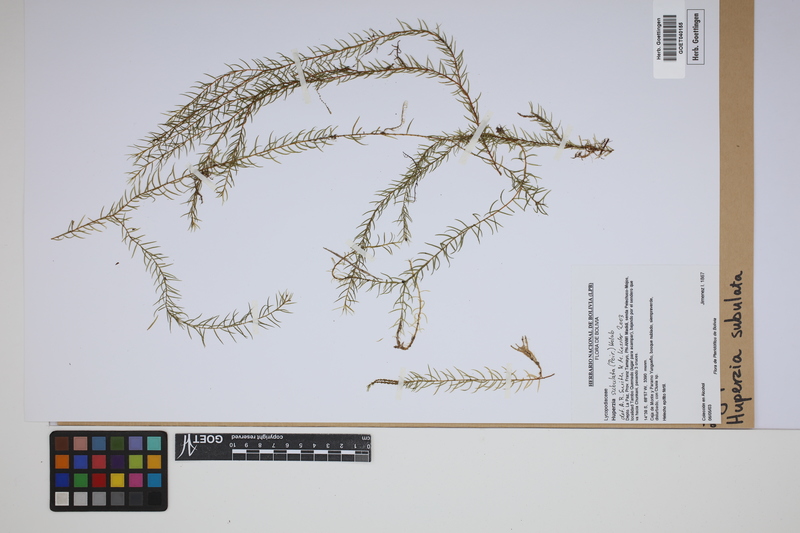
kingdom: Plantae
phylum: Tracheophyta
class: Lycopodiopsida
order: Lycopodiales
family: Lycopodiaceae
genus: Phlegmariurus
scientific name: Phlegmariurus subulatus
